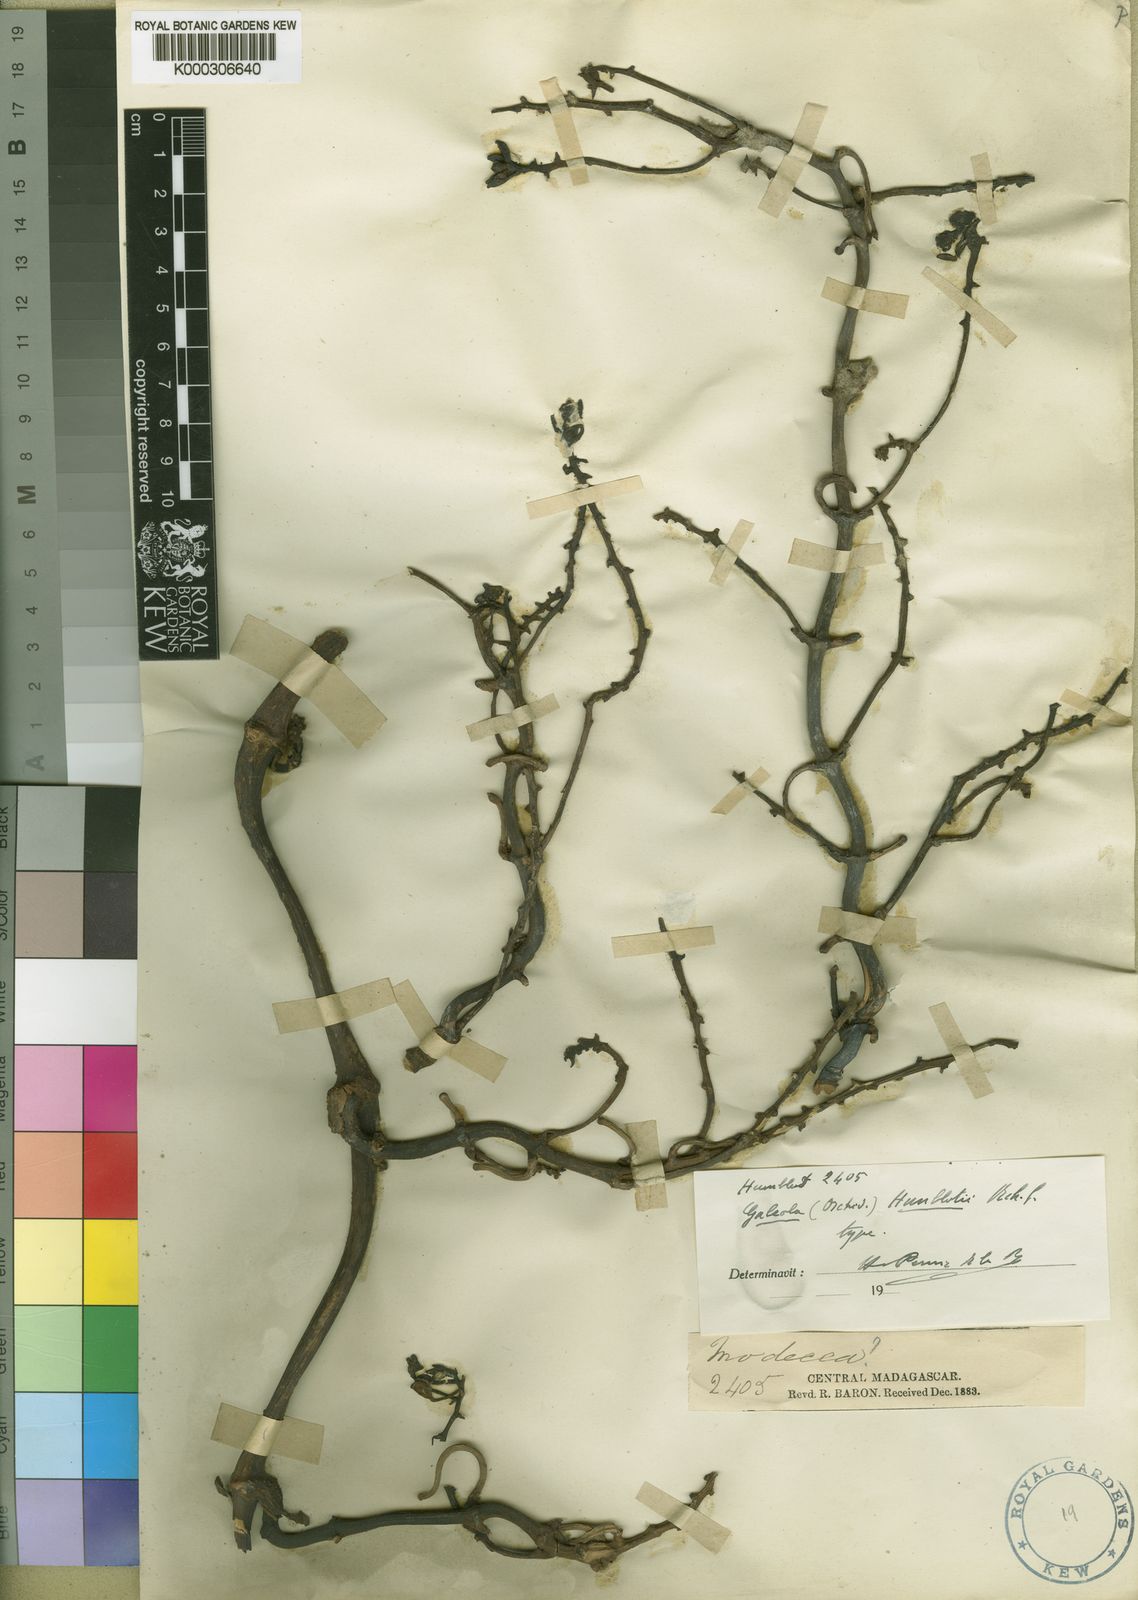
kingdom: Plantae
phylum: Tracheophyta
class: Liliopsida
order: Asparagales
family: Orchidaceae
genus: Galeola
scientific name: Galeola humblotii
